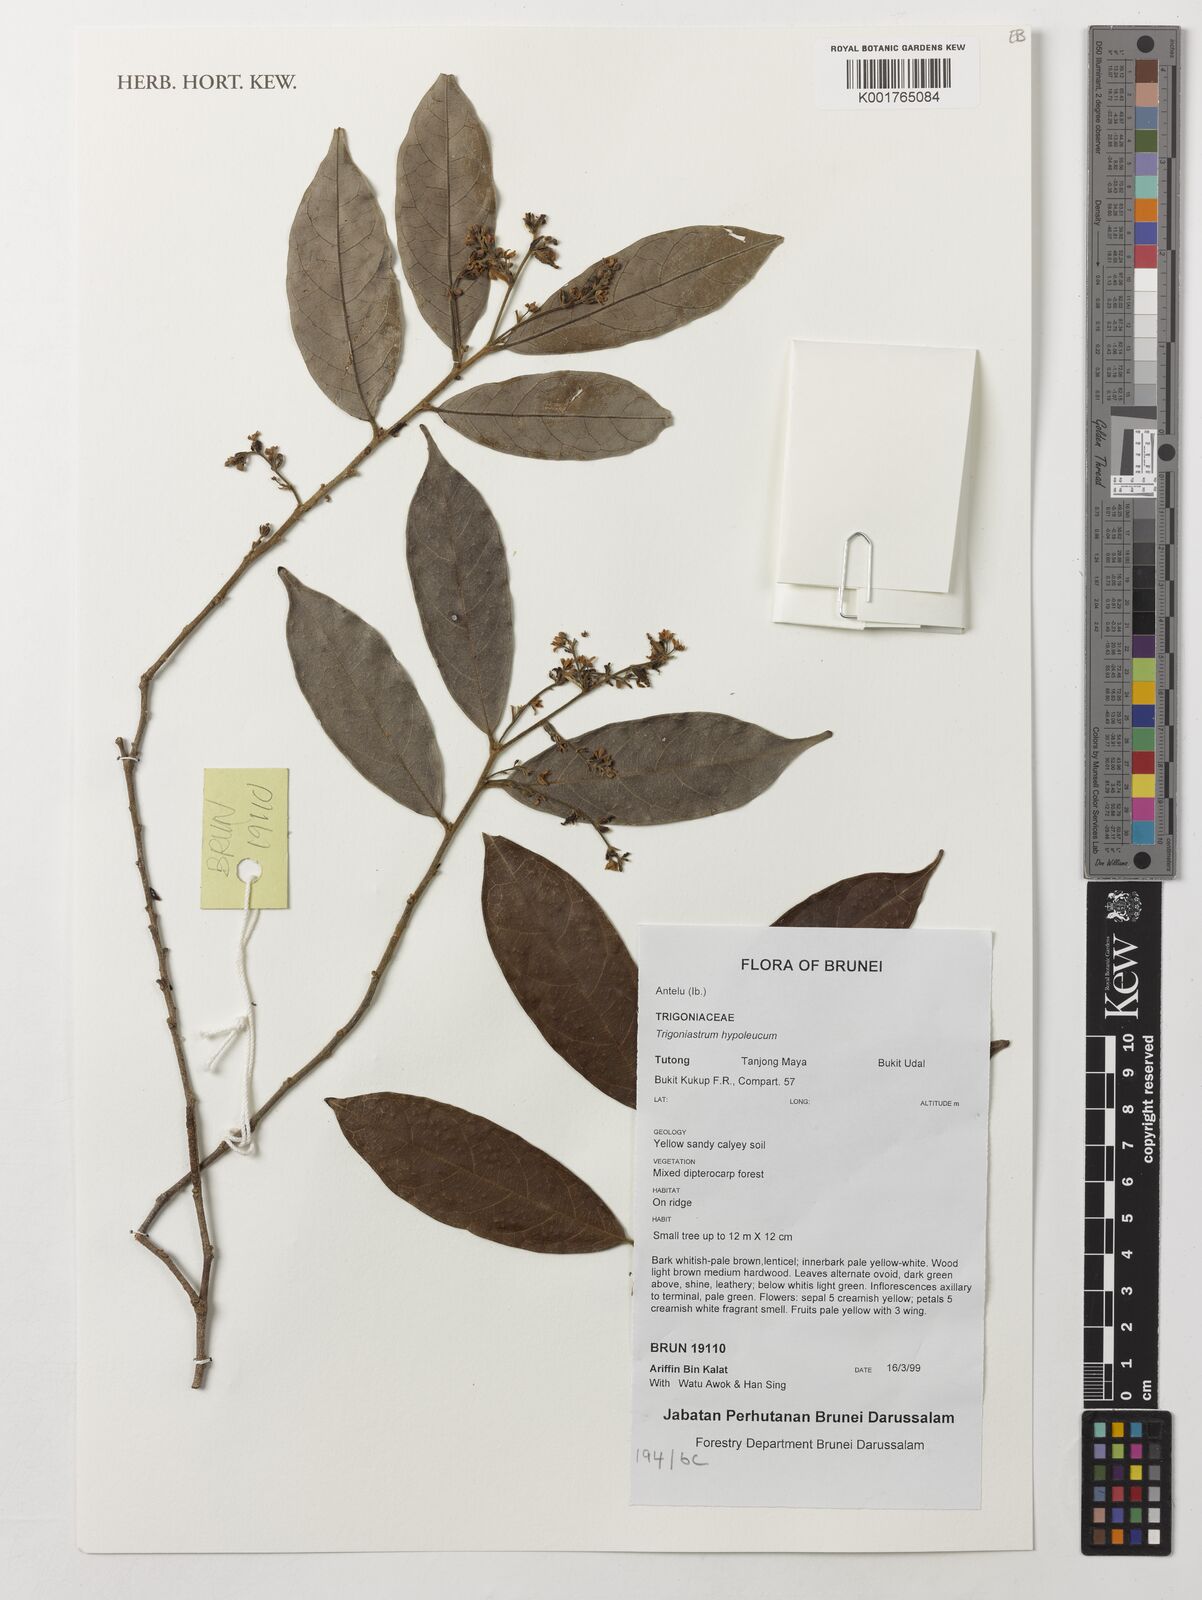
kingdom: Plantae
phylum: Tracheophyta
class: Magnoliopsida
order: Malpighiales
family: Trigoniaceae
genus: Trigoniastrum
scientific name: Trigoniastrum hypoleucum
